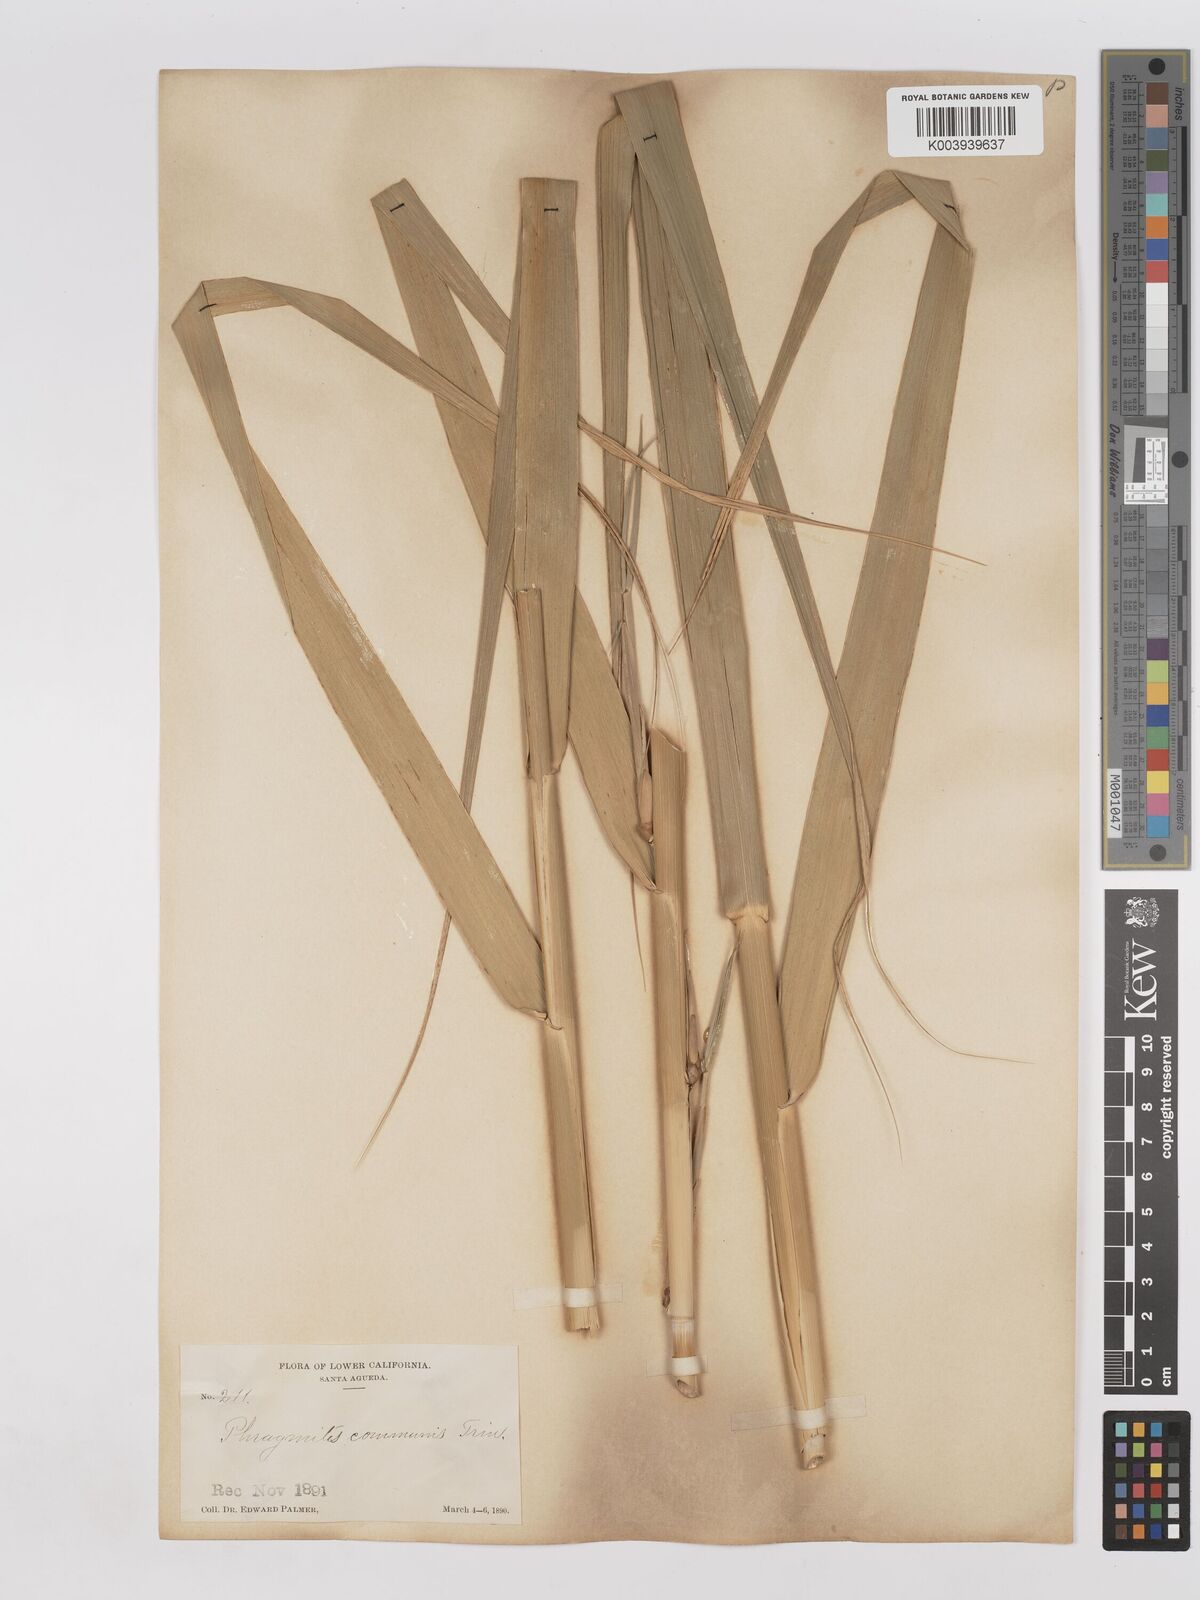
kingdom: Plantae
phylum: Tracheophyta
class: Liliopsida
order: Poales
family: Poaceae
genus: Phragmites
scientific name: Phragmites australis
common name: Common reed
